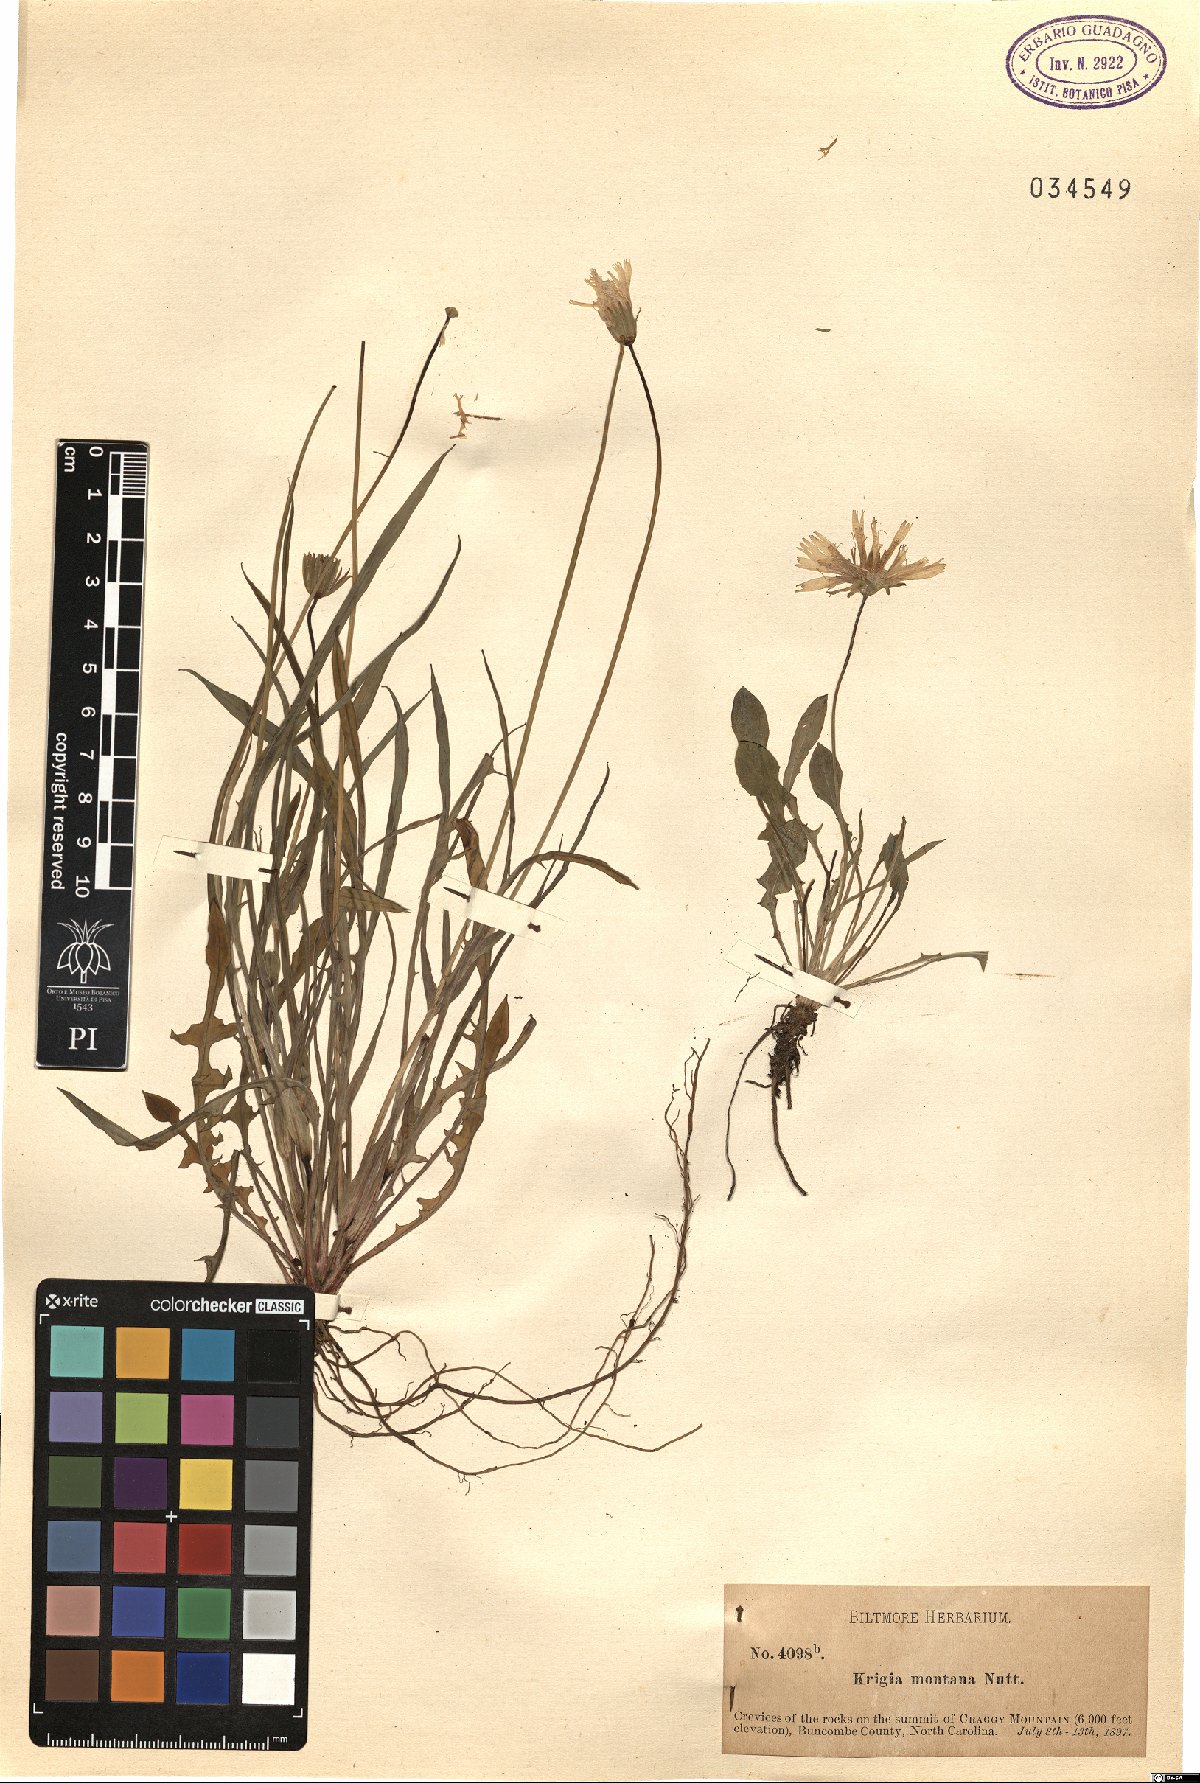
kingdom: Plantae
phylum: Tracheophyta
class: Magnoliopsida
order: Asterales
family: Asteraceae
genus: Krigia
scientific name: Krigia montana
